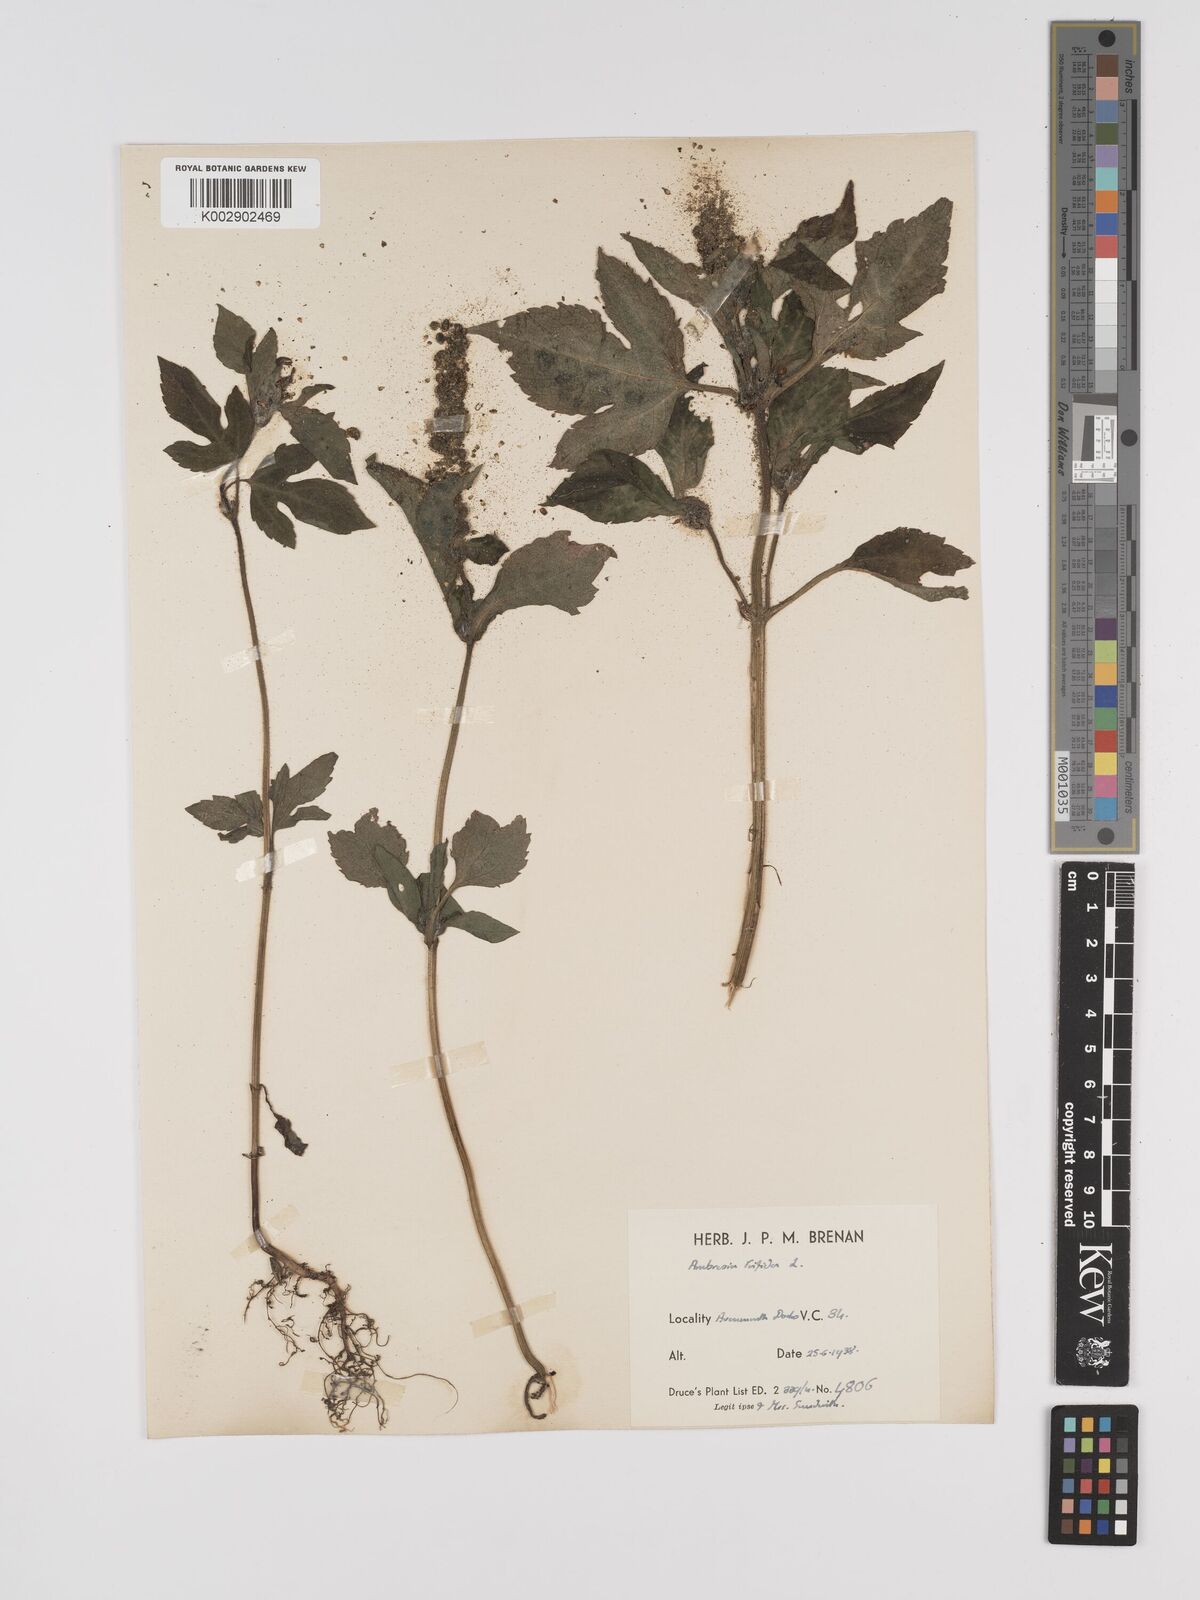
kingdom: Plantae
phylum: Tracheophyta
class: Magnoliopsida
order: Asterales
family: Asteraceae
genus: Ambrosia
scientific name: Ambrosia trifida
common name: Giant ragweed
